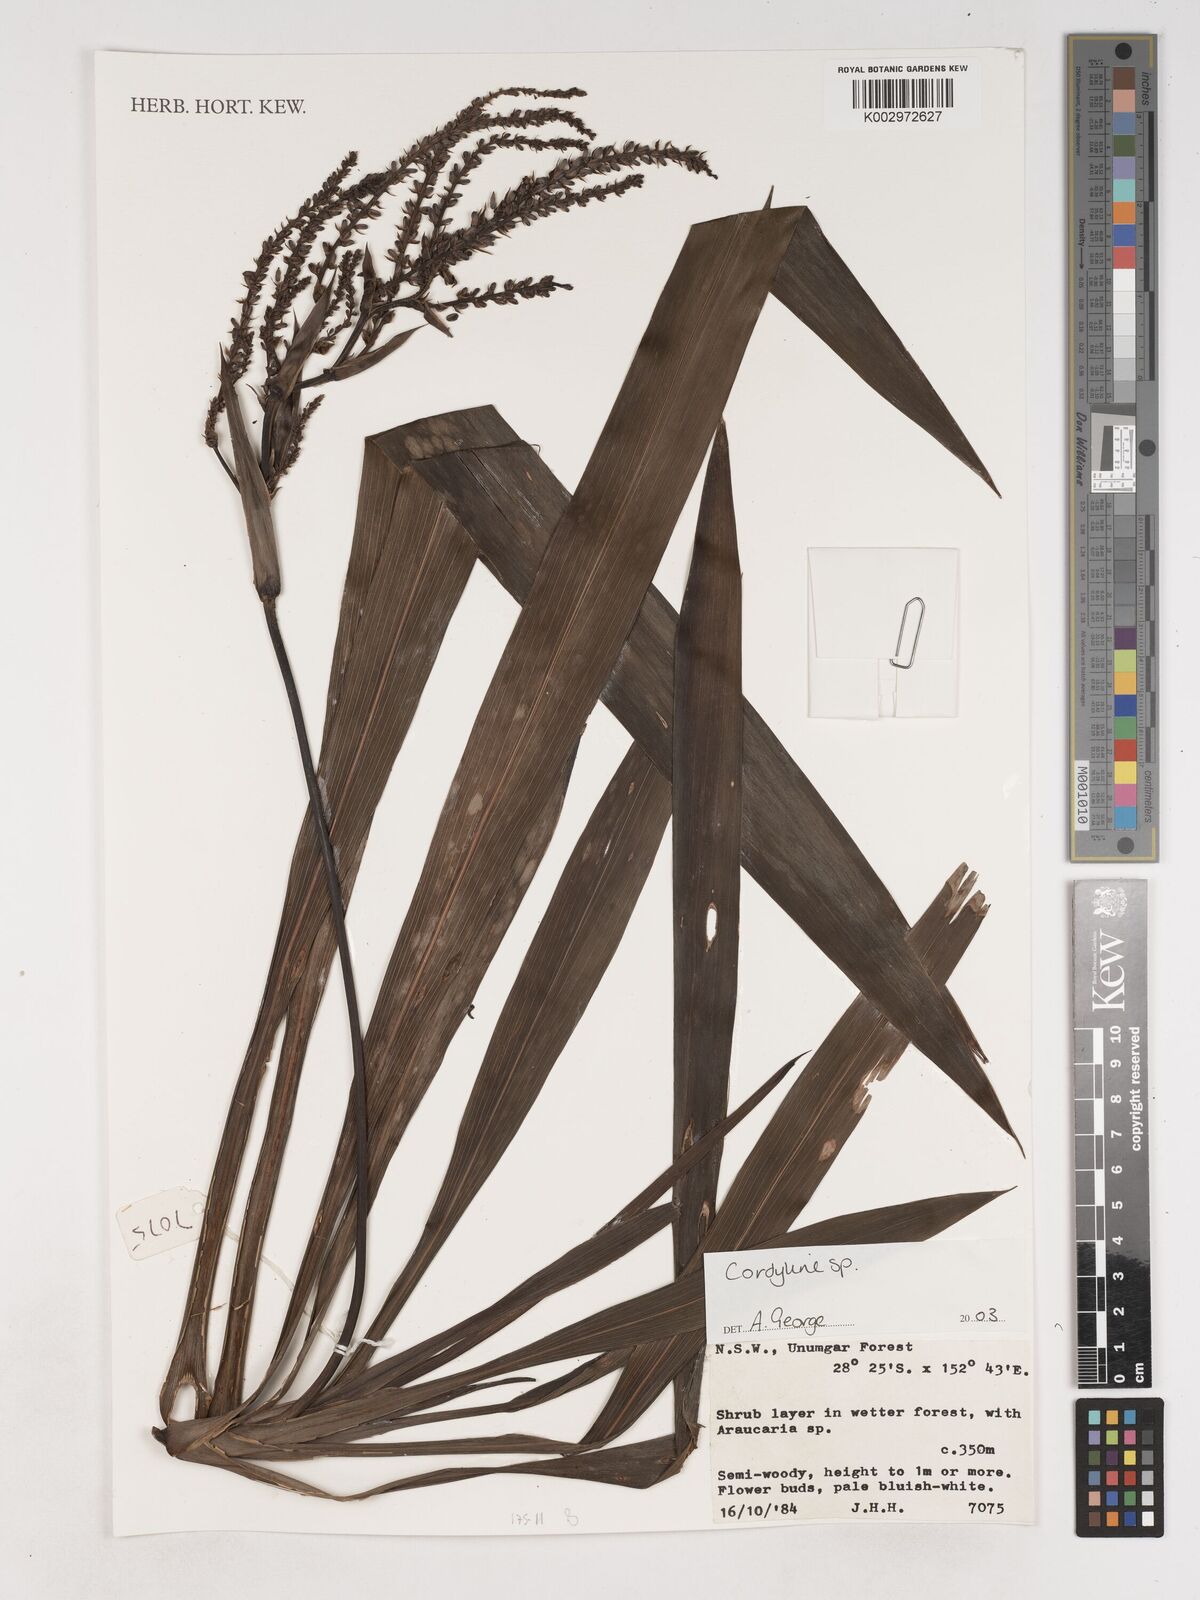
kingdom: Plantae
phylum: Tracheophyta
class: Liliopsida
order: Asparagales
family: Asparagaceae
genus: Cordyline
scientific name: Cordyline
